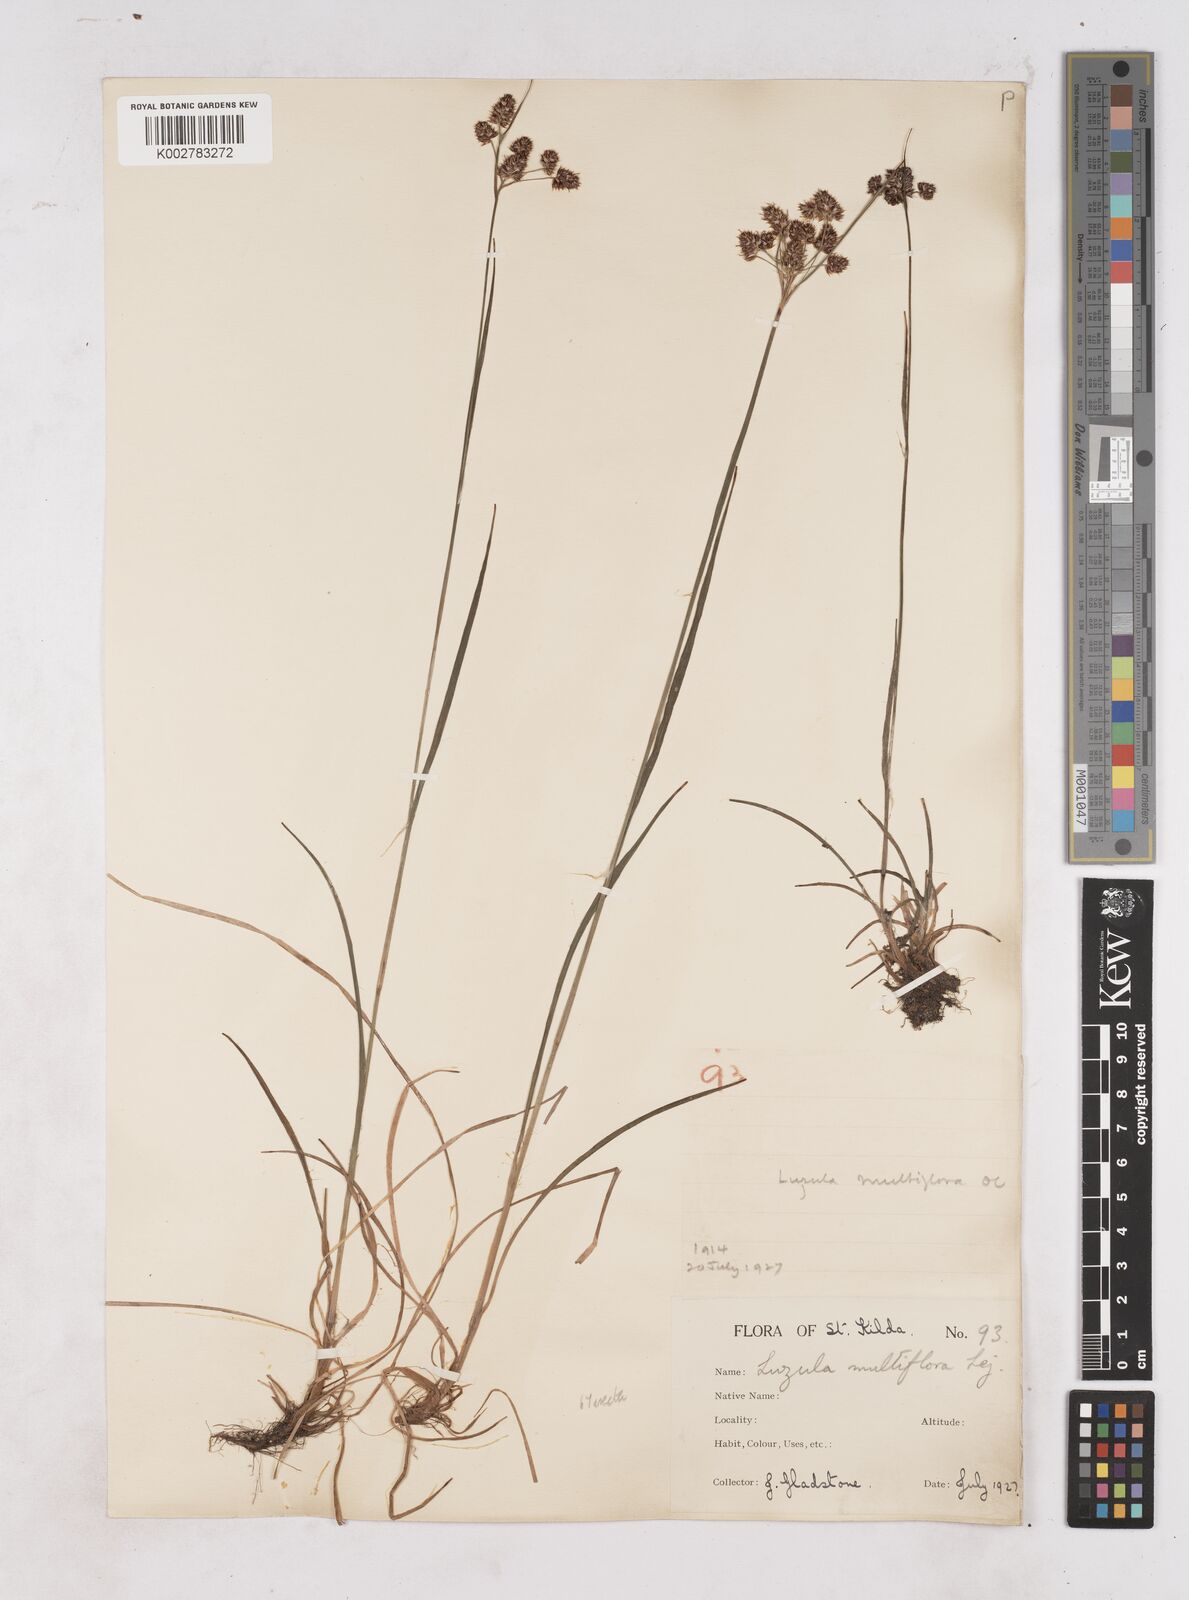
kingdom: Plantae
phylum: Tracheophyta
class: Liliopsida
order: Poales
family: Juncaceae
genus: Luzula
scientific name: Luzula multiflora
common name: Heath wood-rush
